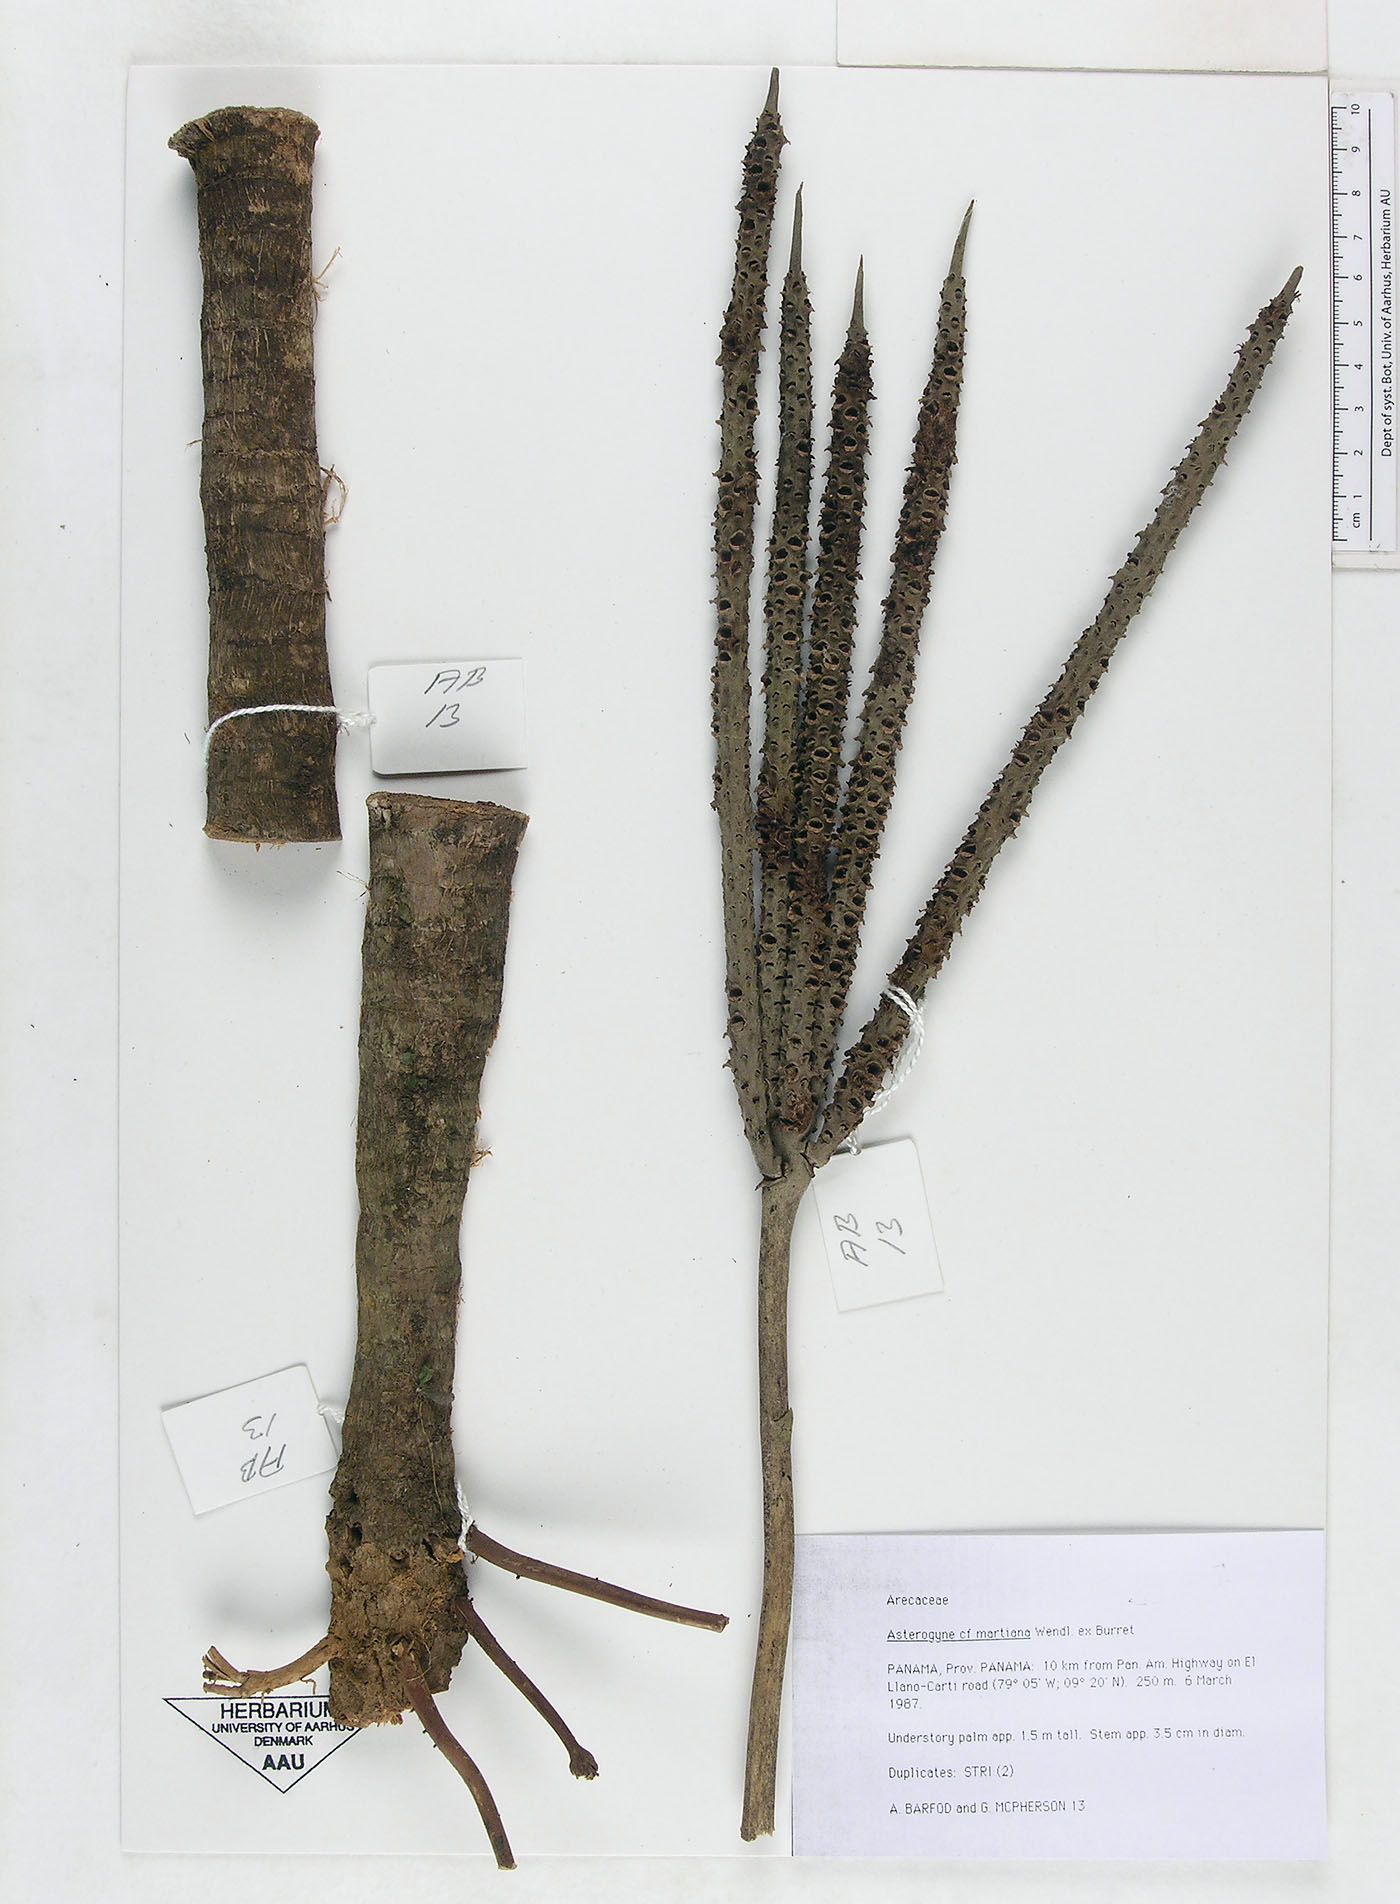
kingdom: Plantae
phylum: Tracheophyta
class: Liliopsida
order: Arecales
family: Arecaceae
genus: Asterogyne
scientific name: Asterogyne martiana
